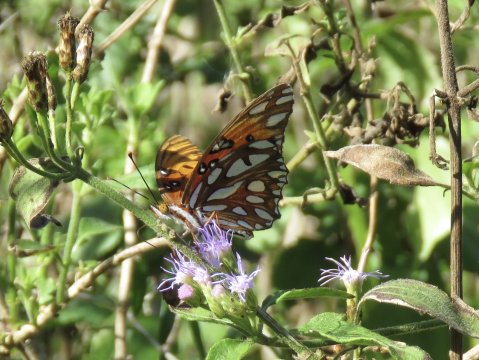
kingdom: Animalia
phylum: Arthropoda
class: Insecta
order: Lepidoptera
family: Nymphalidae
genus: Dione
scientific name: Dione vanillae
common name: Gulf Fritillary
